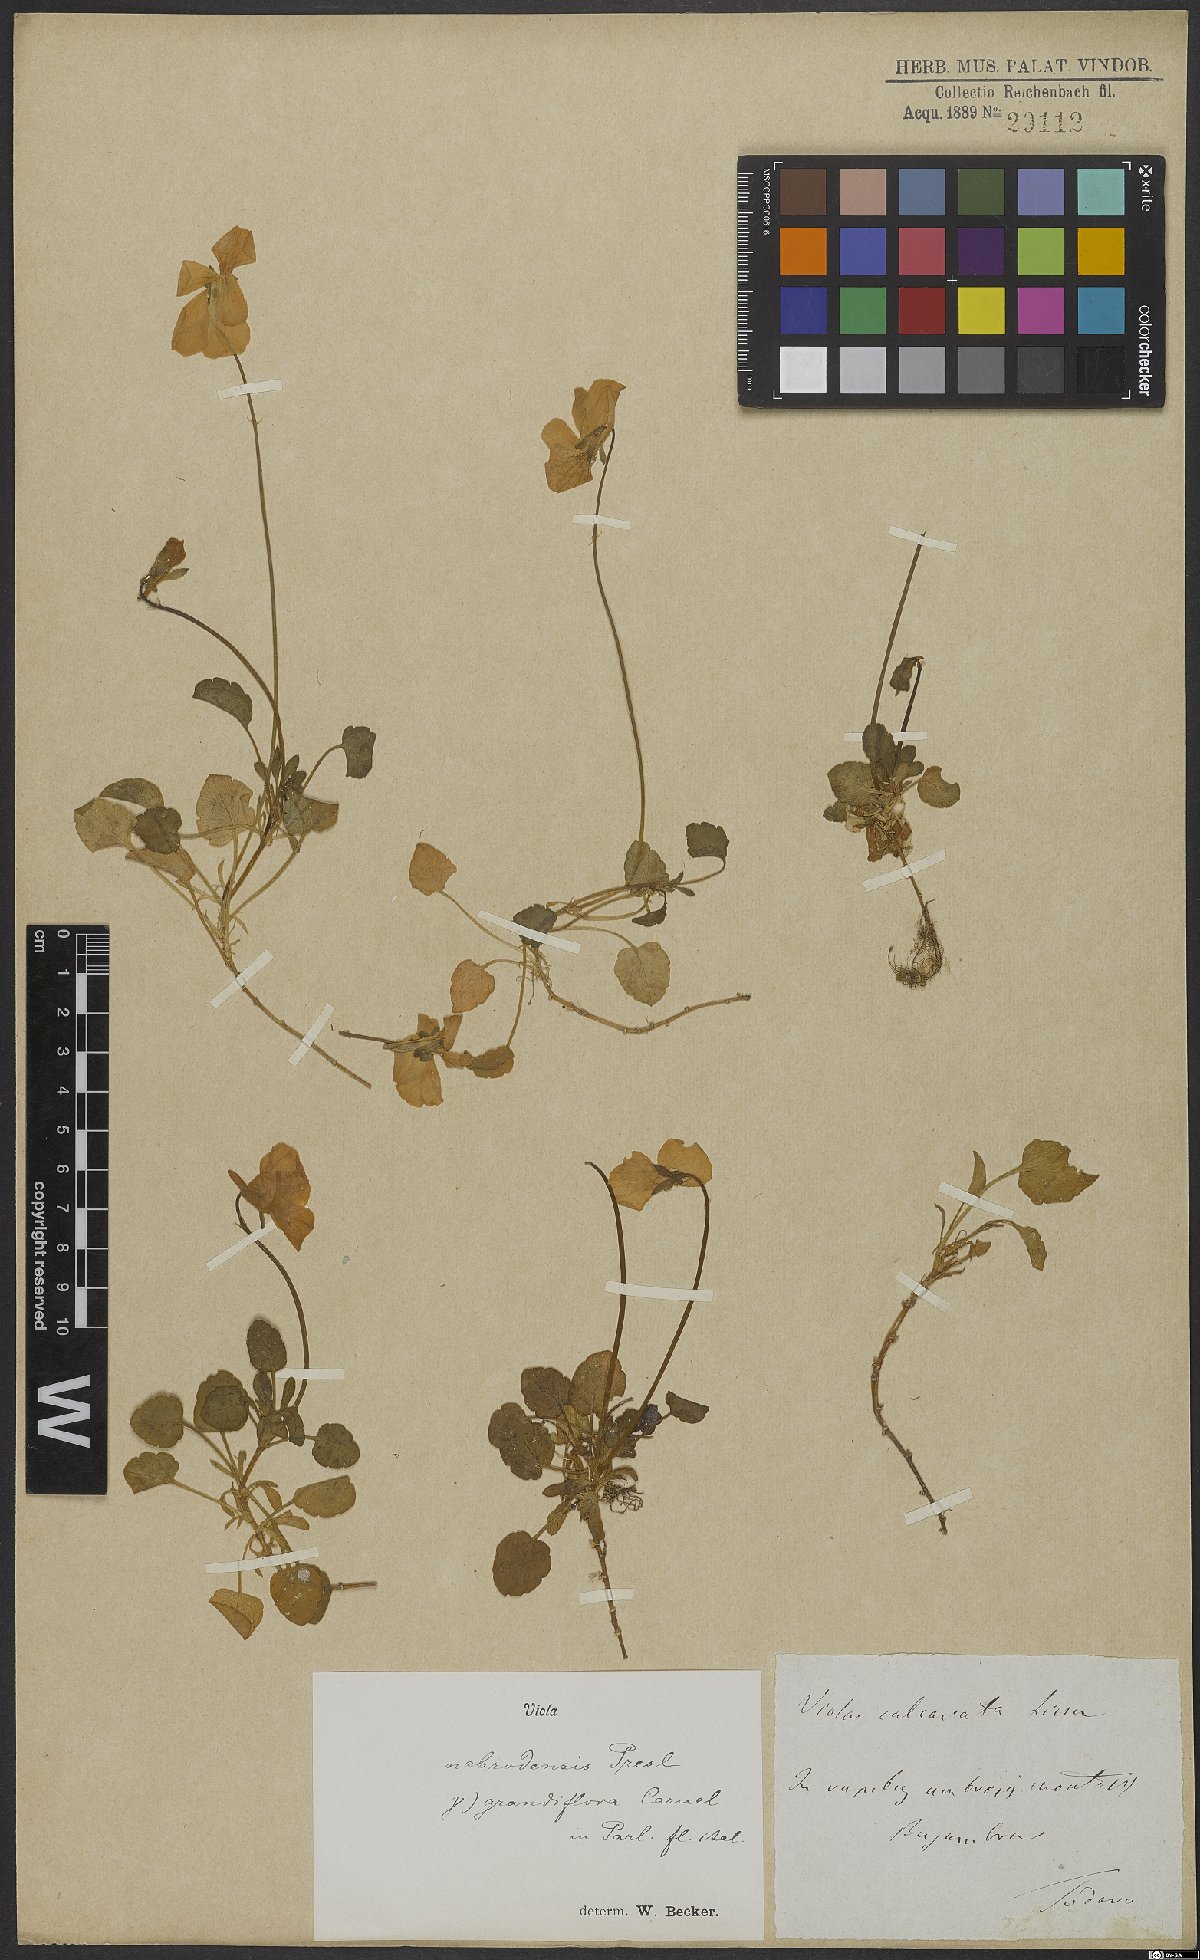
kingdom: Plantae
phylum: Tracheophyta
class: Magnoliopsida
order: Malpighiales
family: Violaceae
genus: Viola
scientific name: Viola nebrodensis
